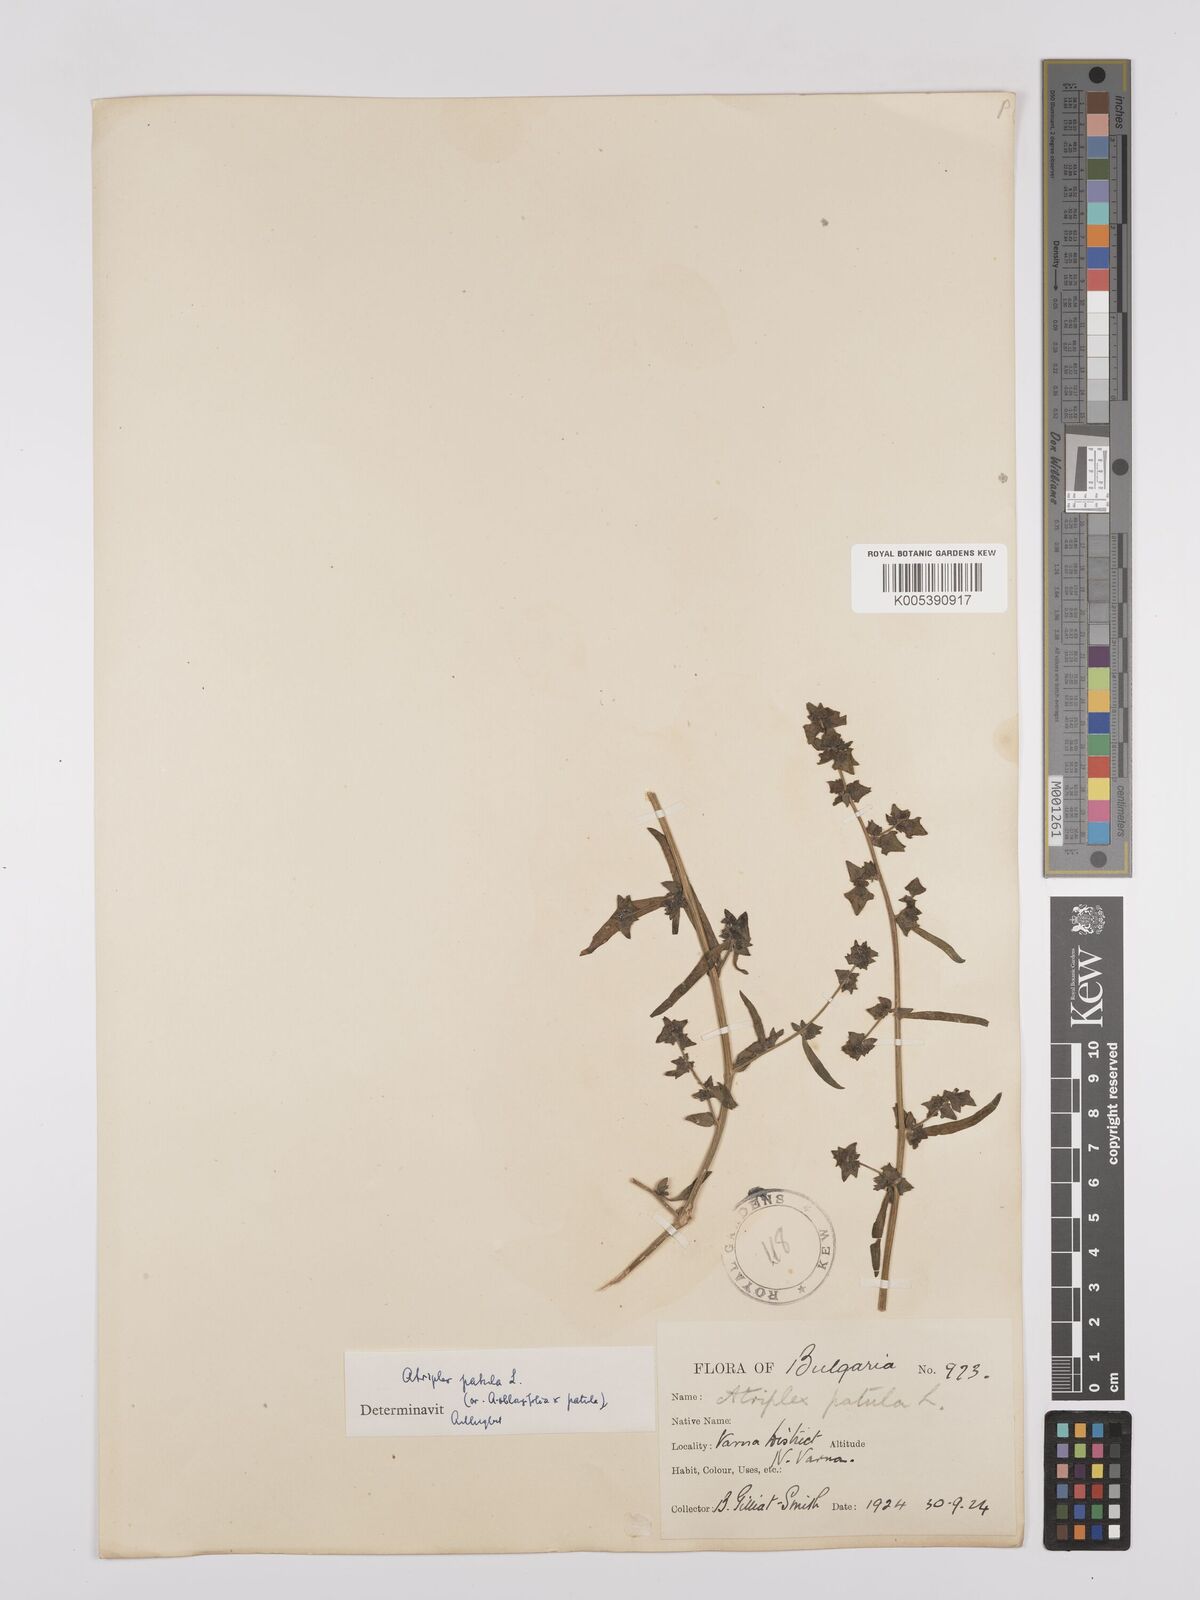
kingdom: Plantae
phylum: Tracheophyta
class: Magnoliopsida
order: Caryophyllales
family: Amaranthaceae
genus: Atriplex
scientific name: Atriplex
